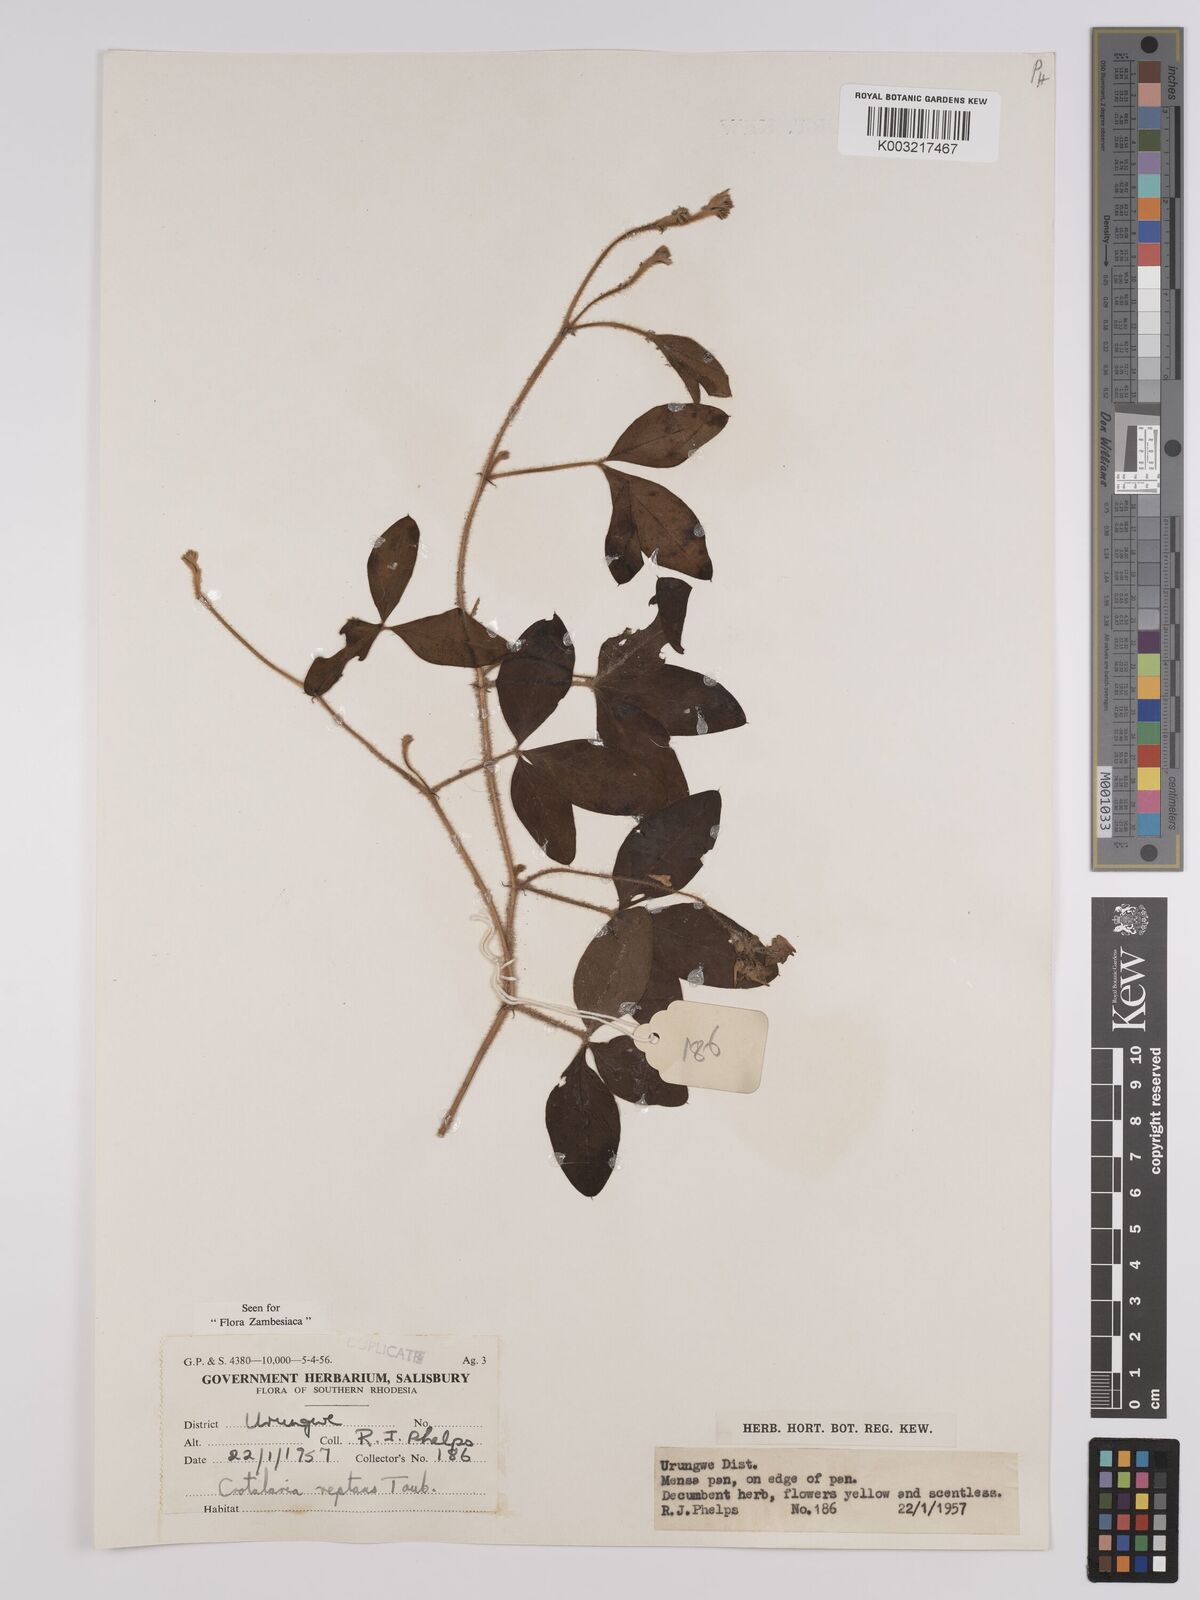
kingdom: Plantae
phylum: Tracheophyta
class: Magnoliopsida
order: Fabales
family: Fabaceae
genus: Crotalaria
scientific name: Crotalaria reptans
